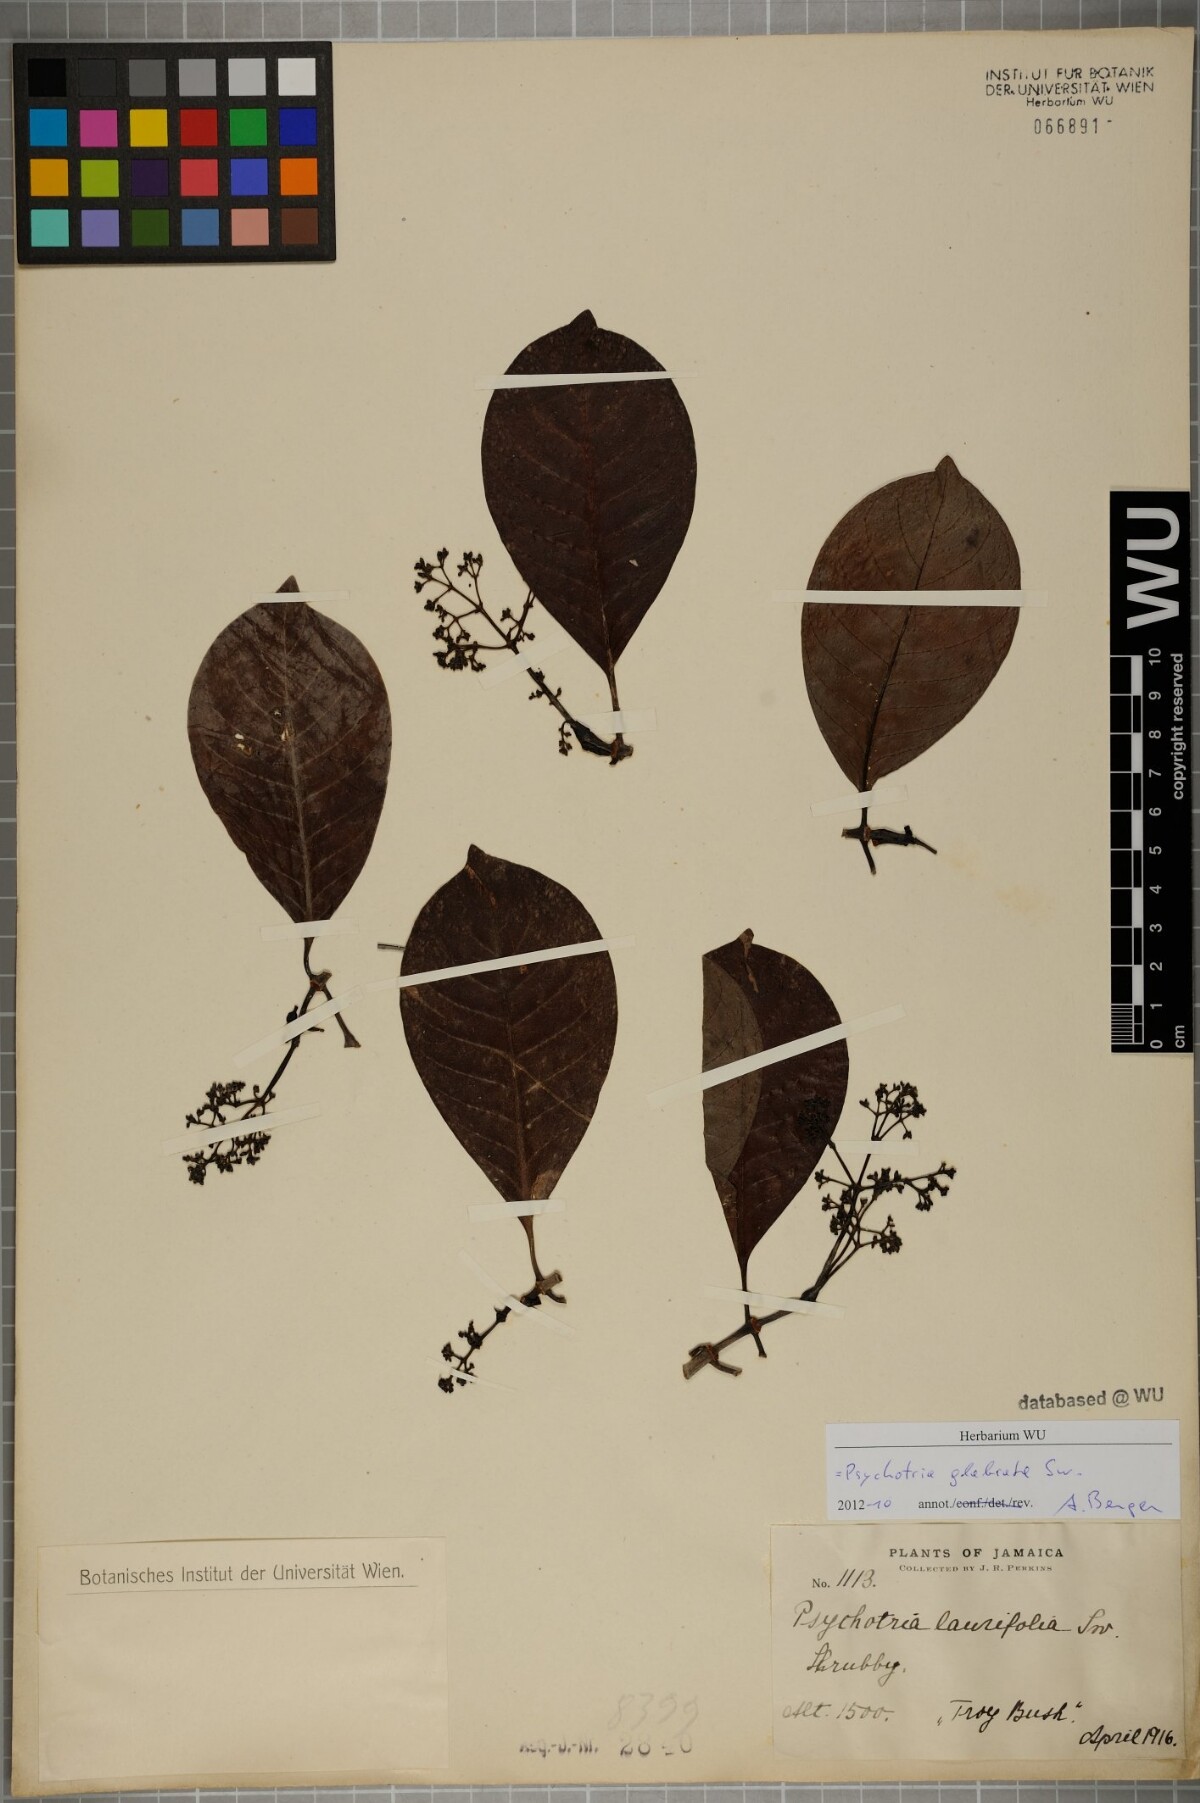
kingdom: Plantae
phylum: Tracheophyta
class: Magnoliopsida
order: Gentianales
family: Rubiaceae
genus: Psychotria
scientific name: Psychotria glabrata
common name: Browne's wild coffee
